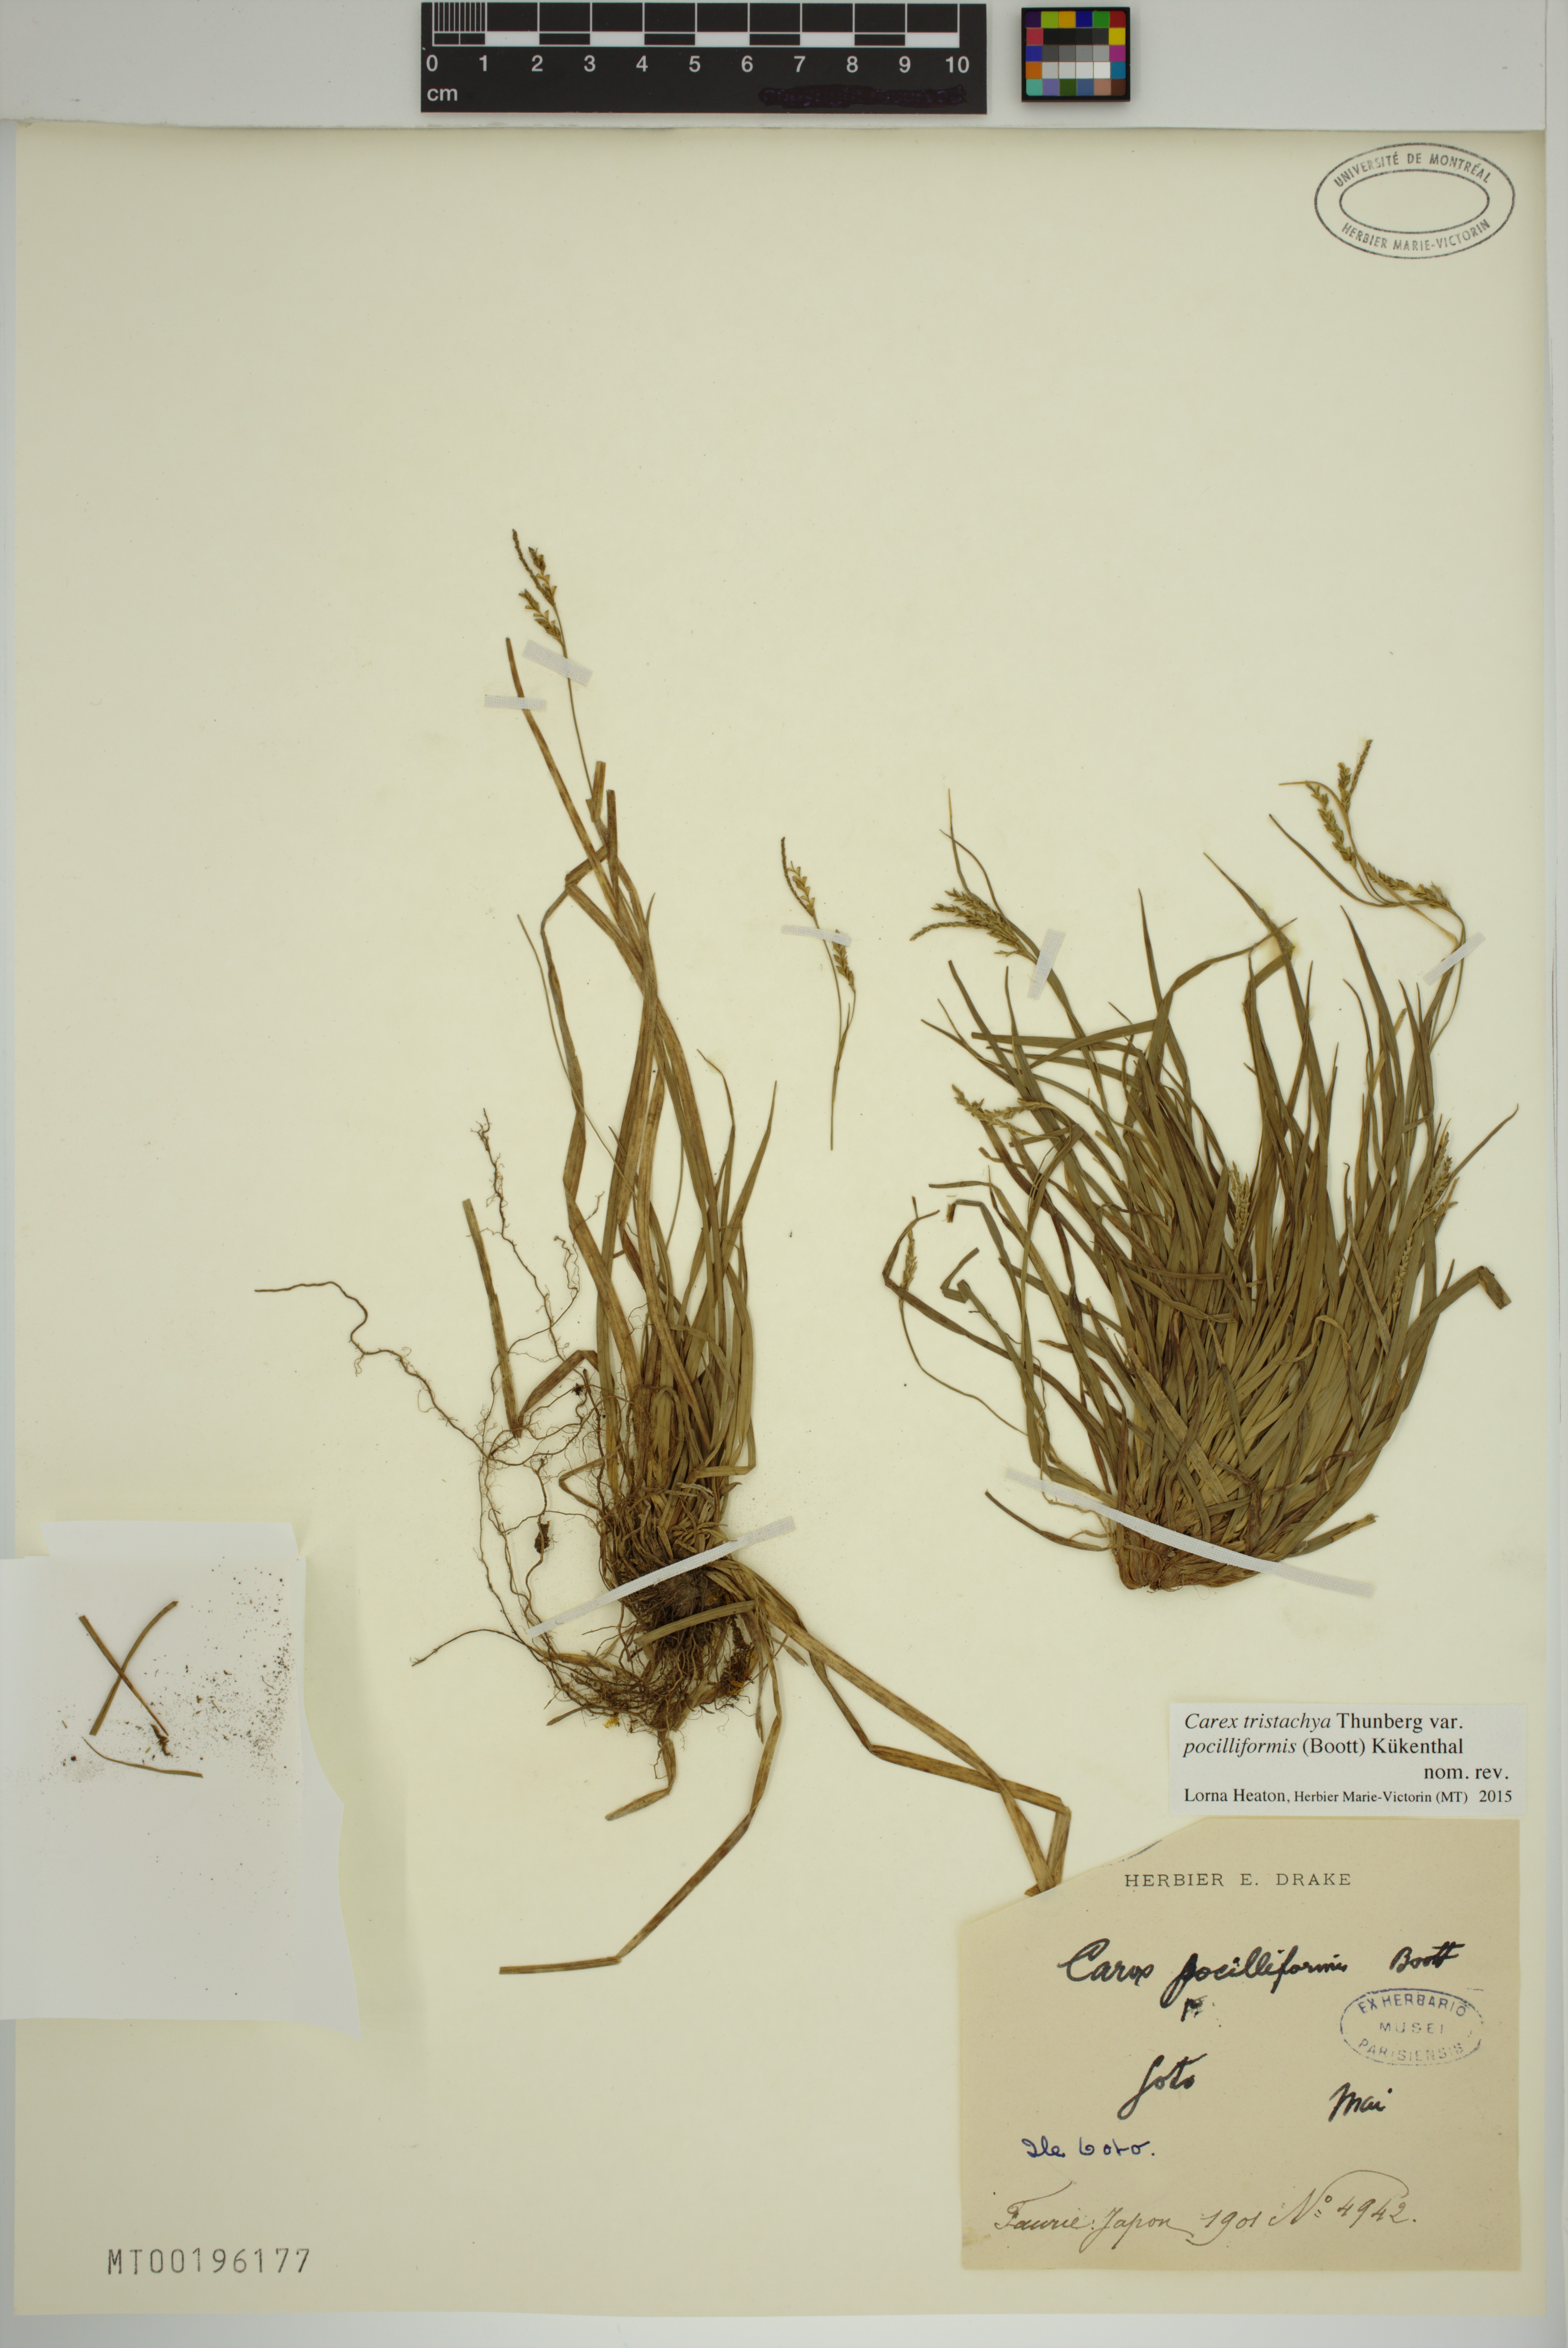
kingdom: Plantae
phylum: Tracheophyta
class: Liliopsida
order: Poales
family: Cyperaceae
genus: Carex
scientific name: Carex tristachya
